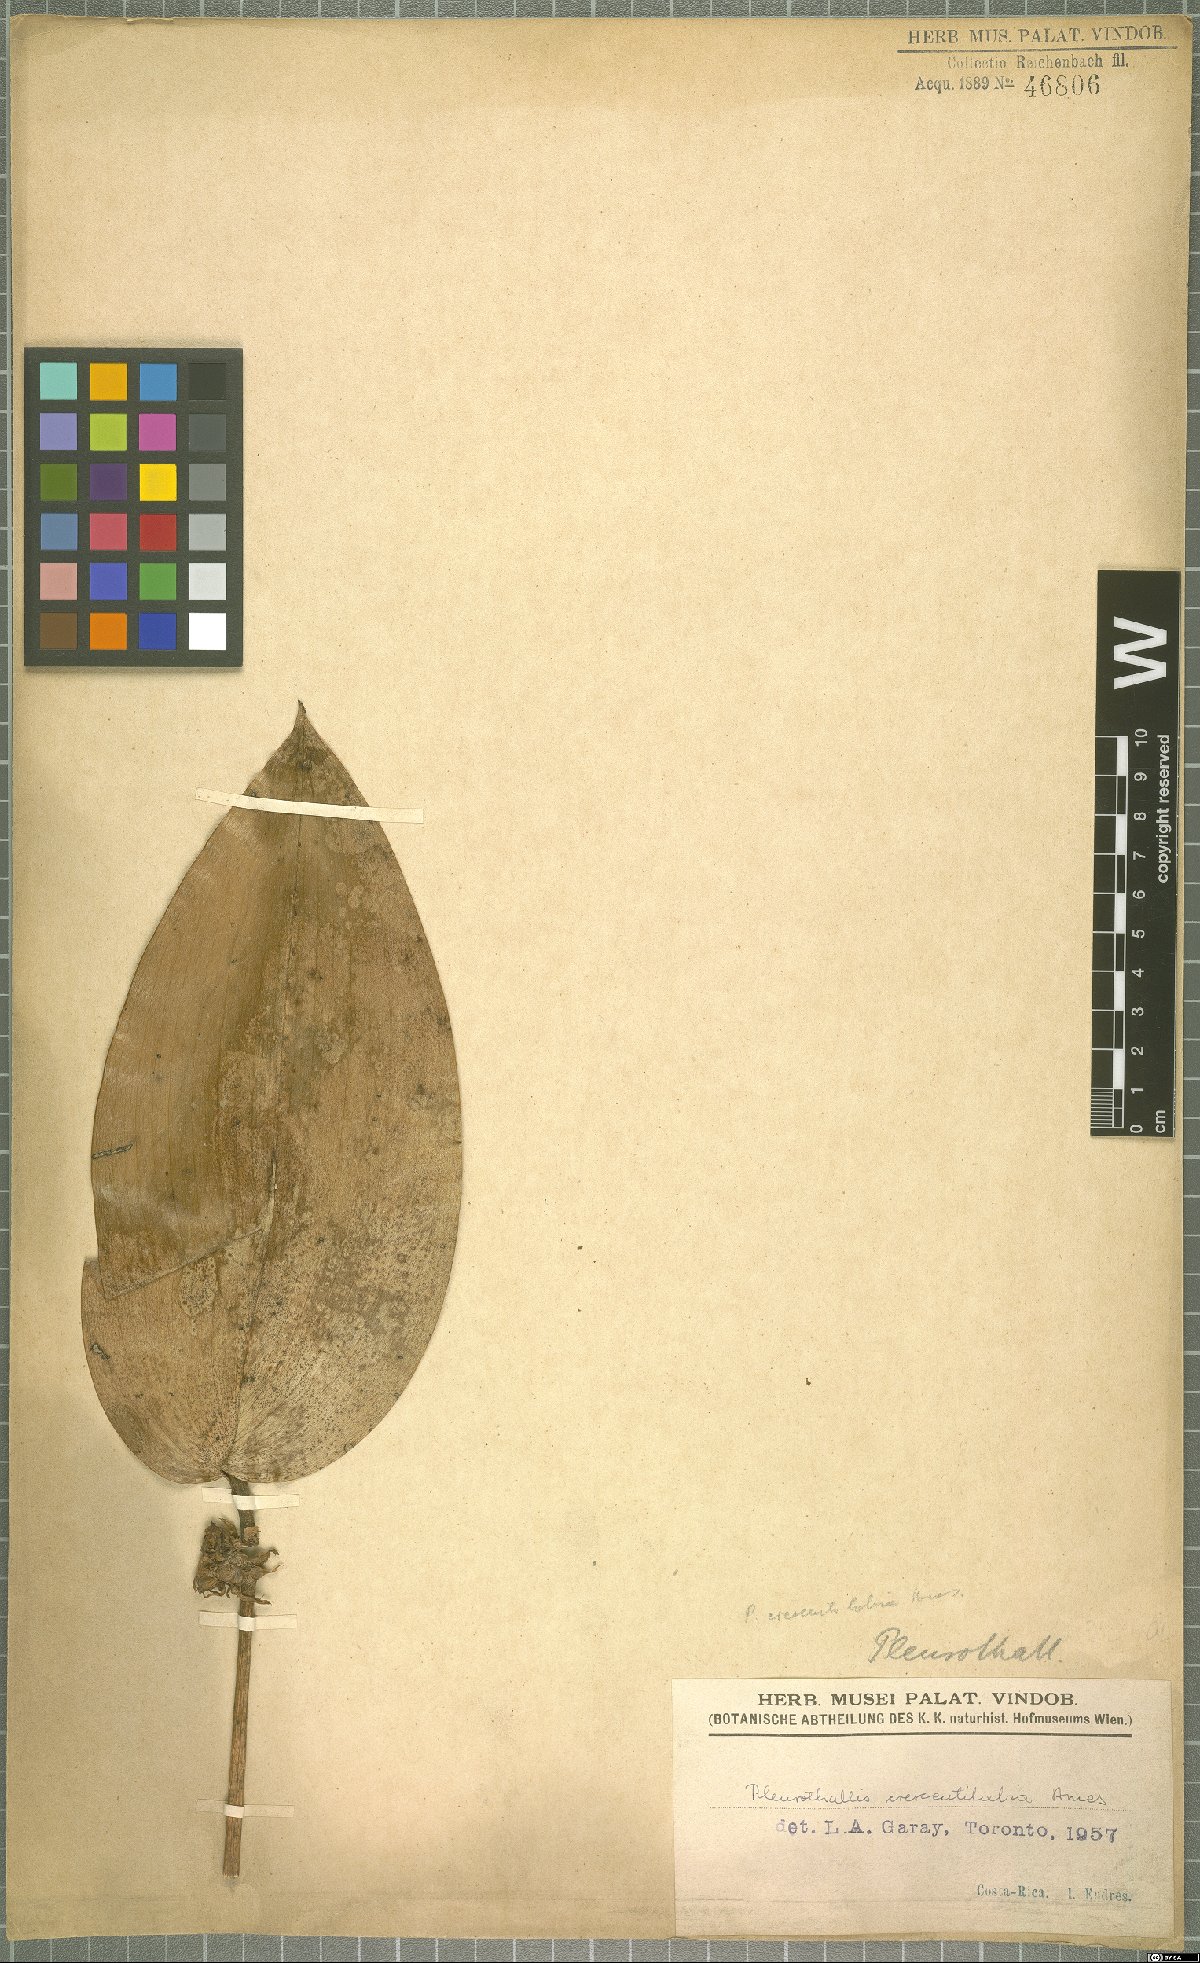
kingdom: Plantae
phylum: Tracheophyta
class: Liliopsida
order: Asparagales
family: Orchidaceae
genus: Pleurothallis
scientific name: Pleurothallis crescentilabia
